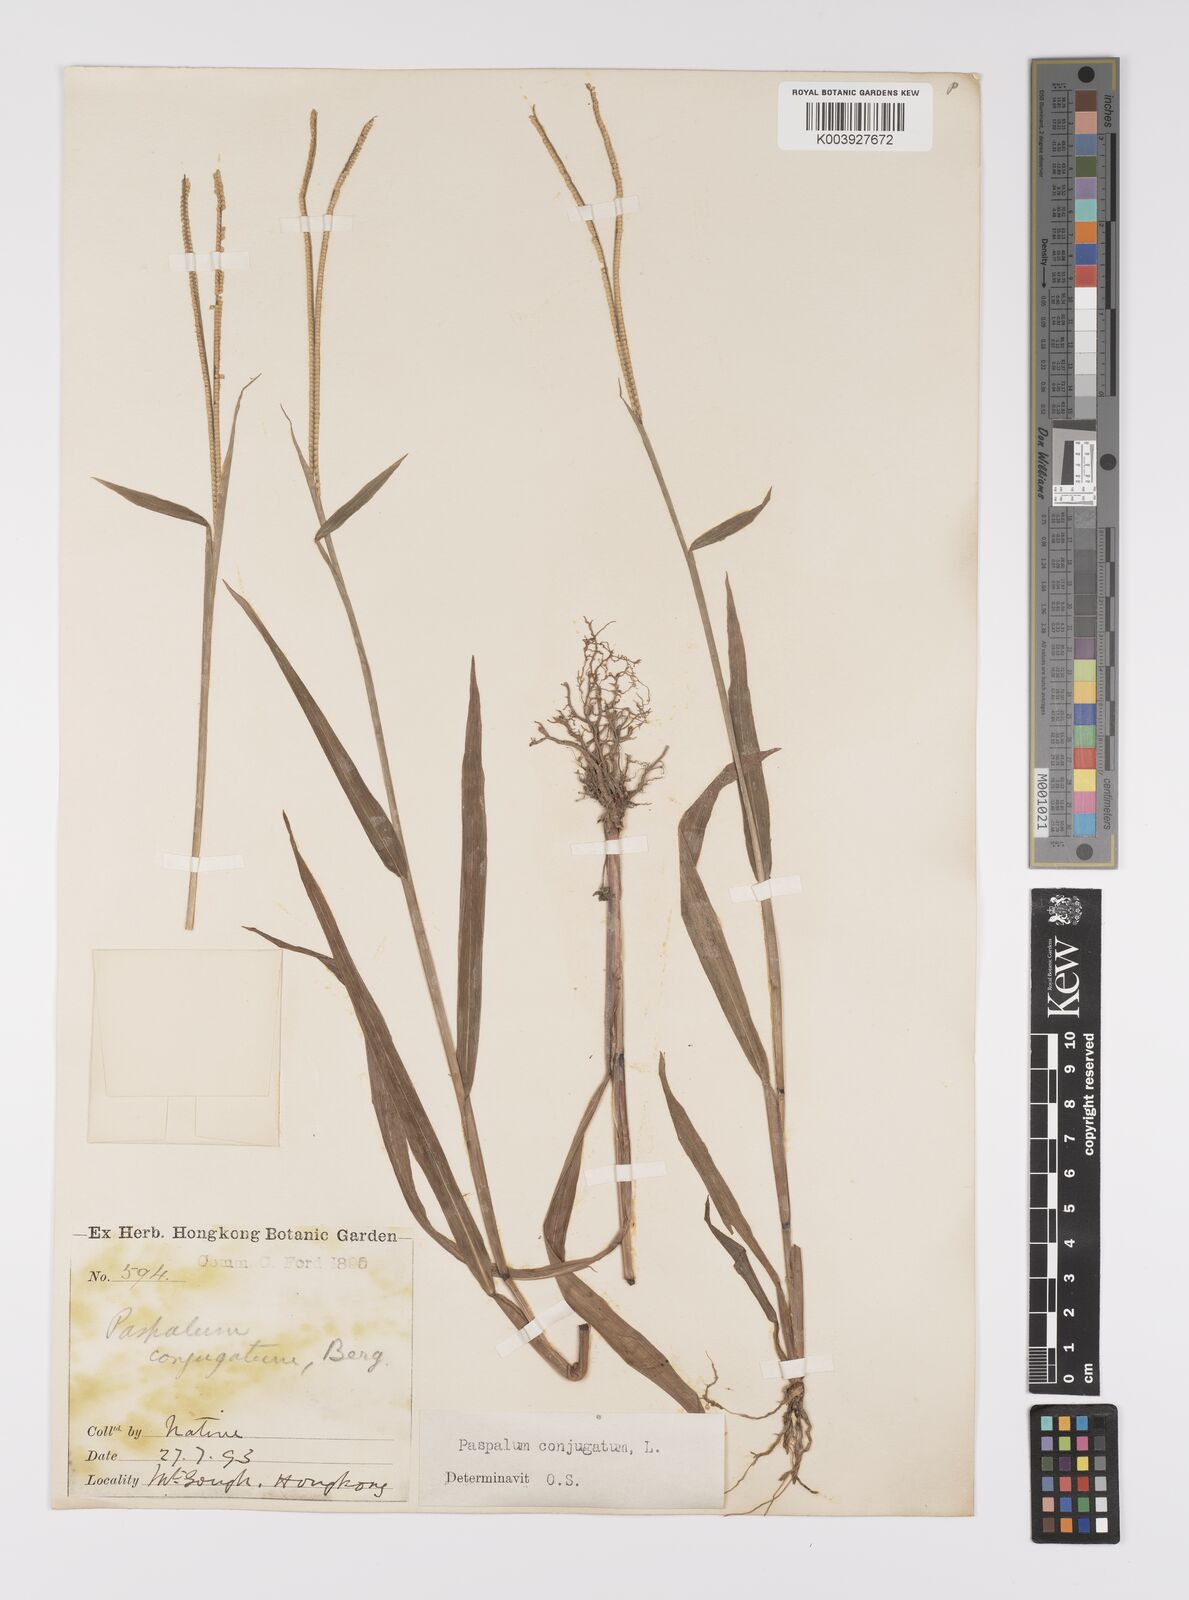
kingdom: Plantae
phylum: Tracheophyta
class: Liliopsida
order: Poales
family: Poaceae
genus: Paspalum
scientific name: Paspalum conjugatum
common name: Hilograss
